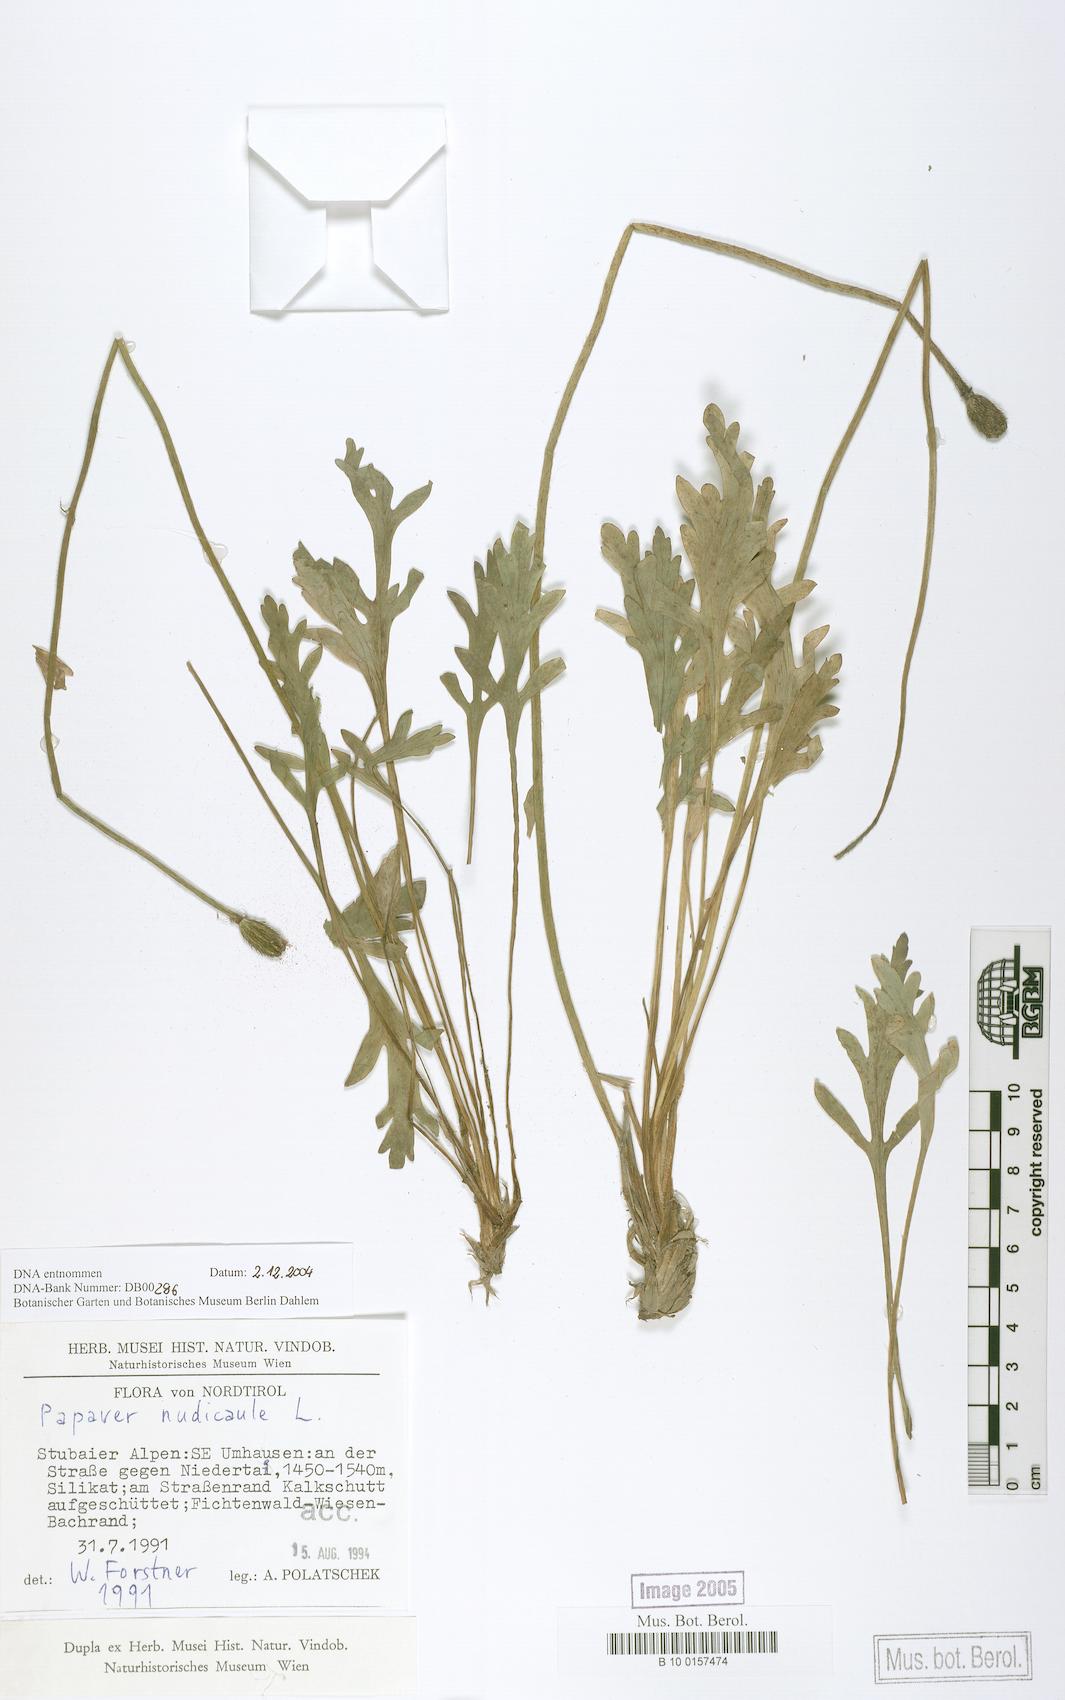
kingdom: Plantae
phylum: Tracheophyta
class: Magnoliopsida
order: Ranunculales
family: Papaveraceae
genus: Papaver
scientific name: Papaver nudicaule
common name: Arctic poppy
